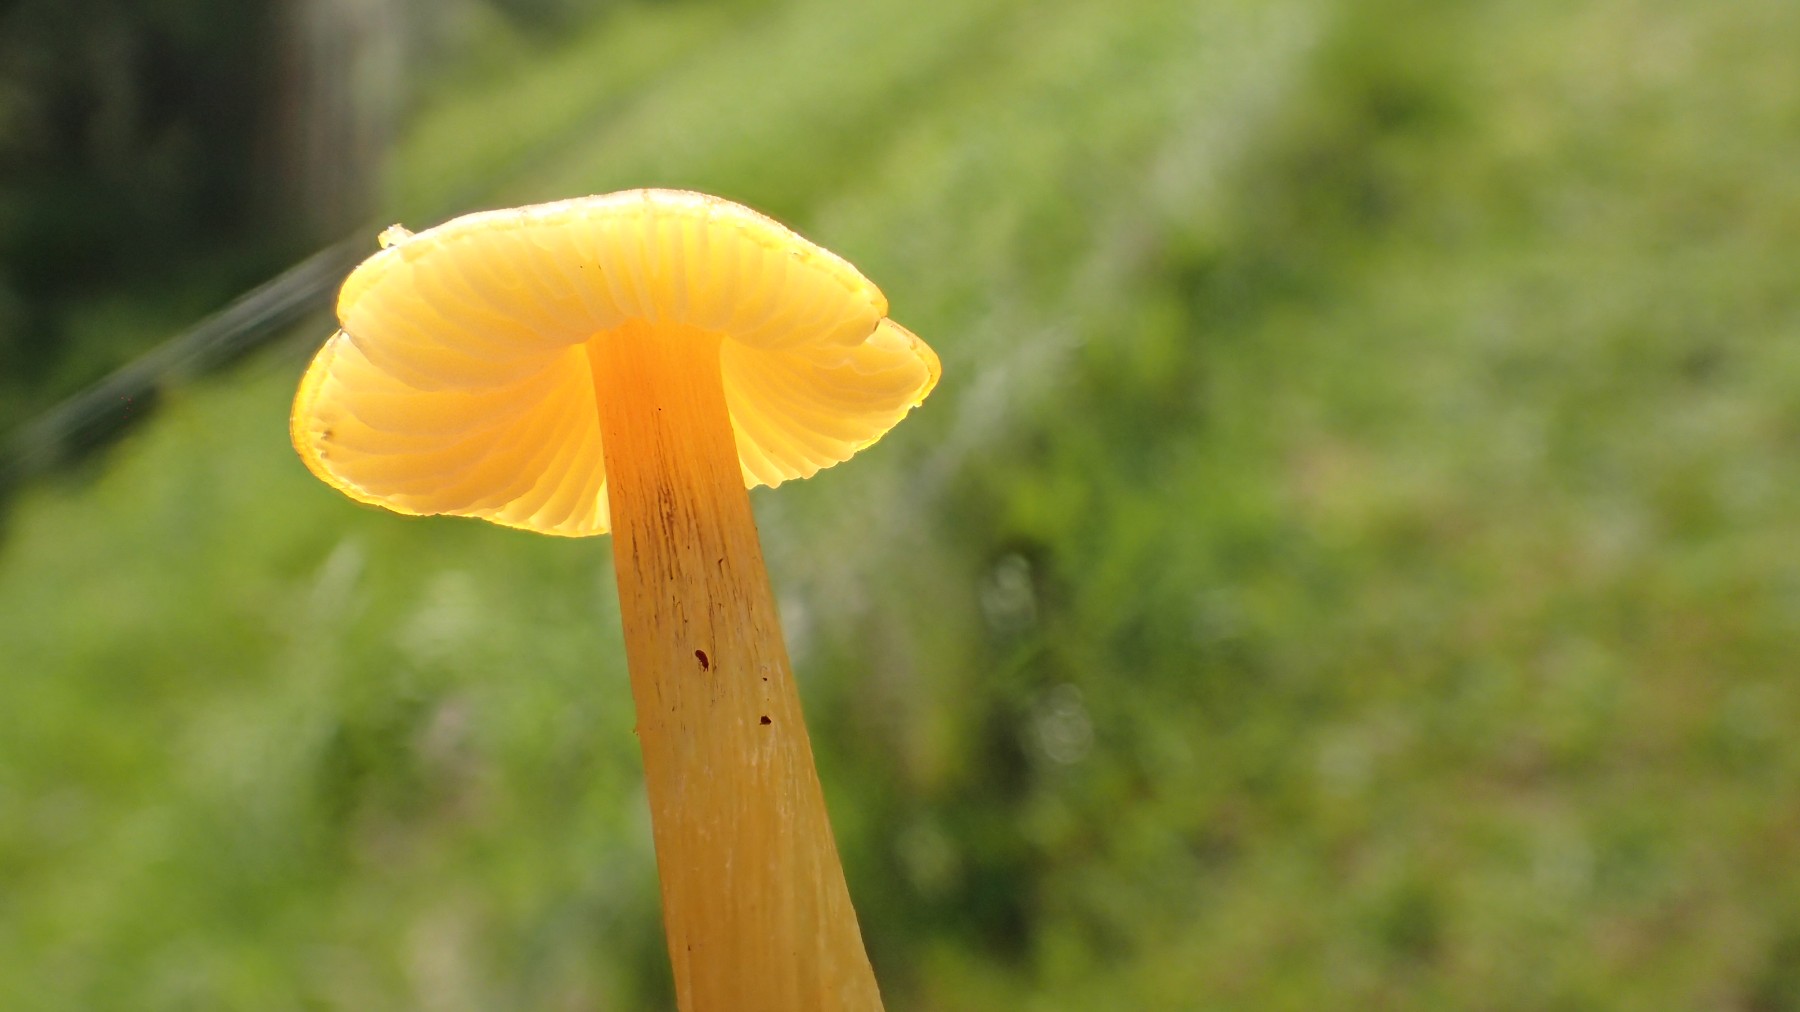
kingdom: Fungi
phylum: Basidiomycota
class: Agaricomycetes
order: Agaricales
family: Hygrophoraceae
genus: Hygrocybe
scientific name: Hygrocybe conica
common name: kegle-vokshat
